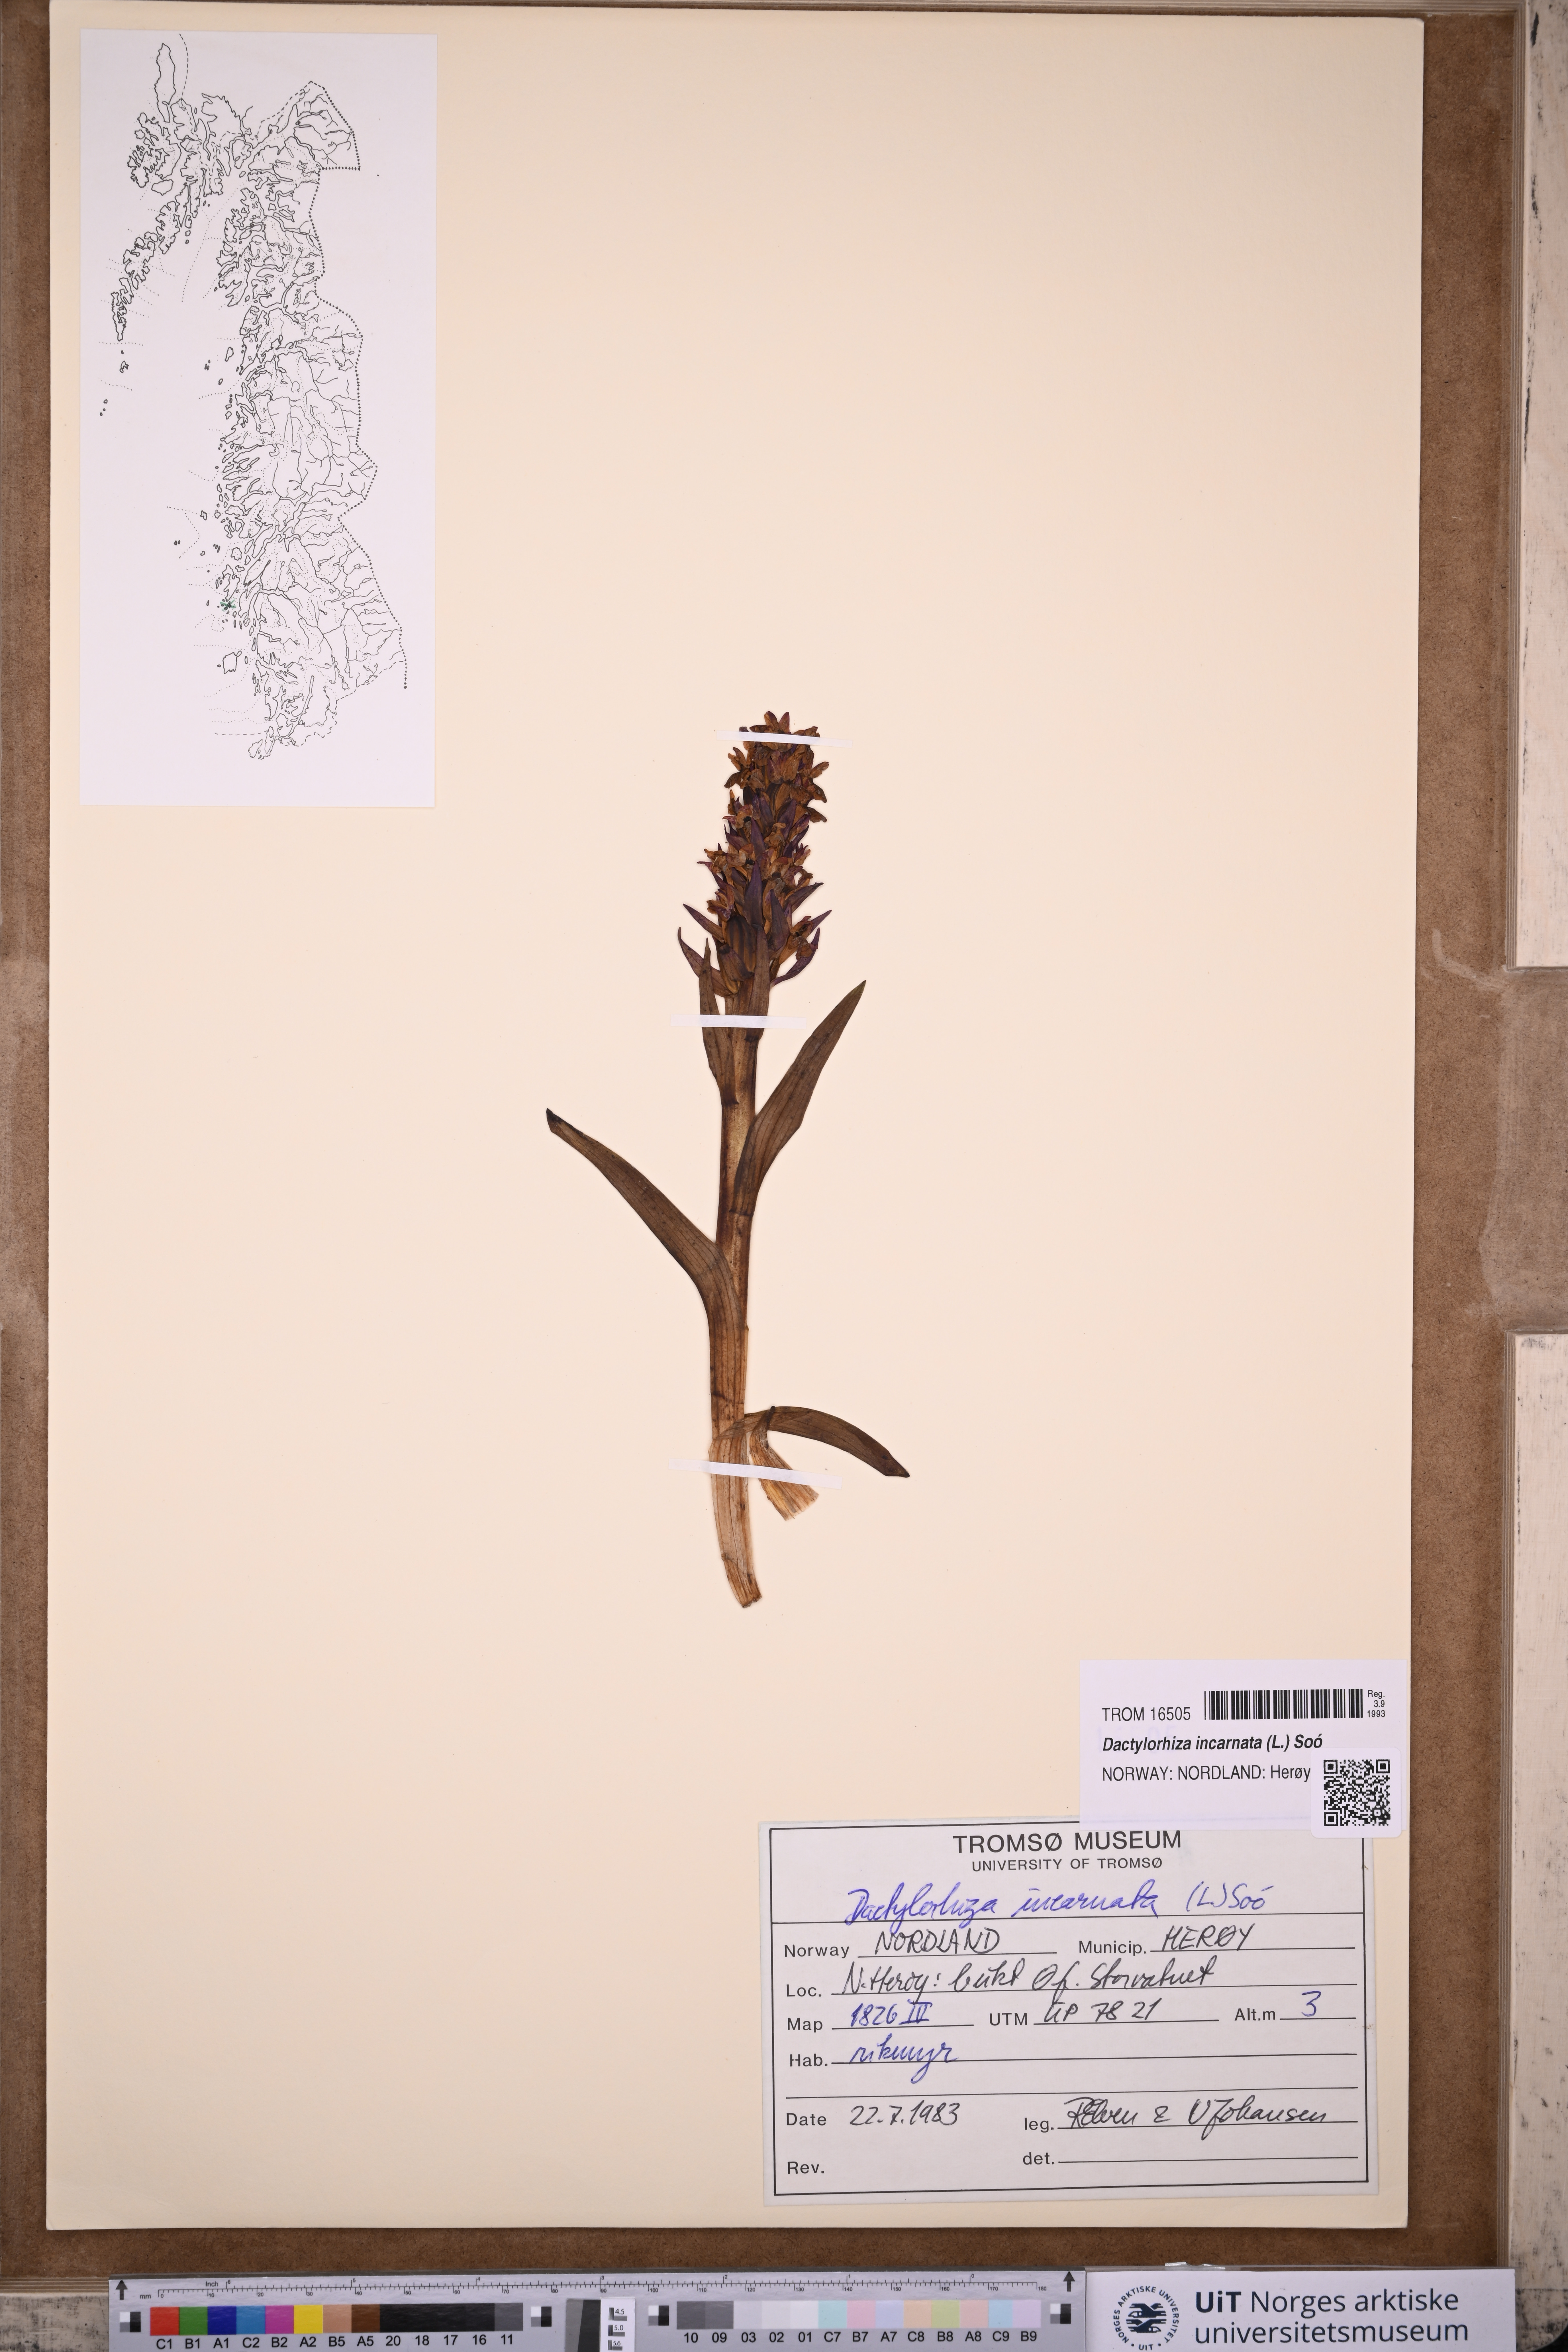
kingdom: Plantae
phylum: Tracheophyta
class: Liliopsida
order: Asparagales
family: Orchidaceae
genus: Dactylorhiza
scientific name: Dactylorhiza incarnata
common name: Early marsh-orchid
